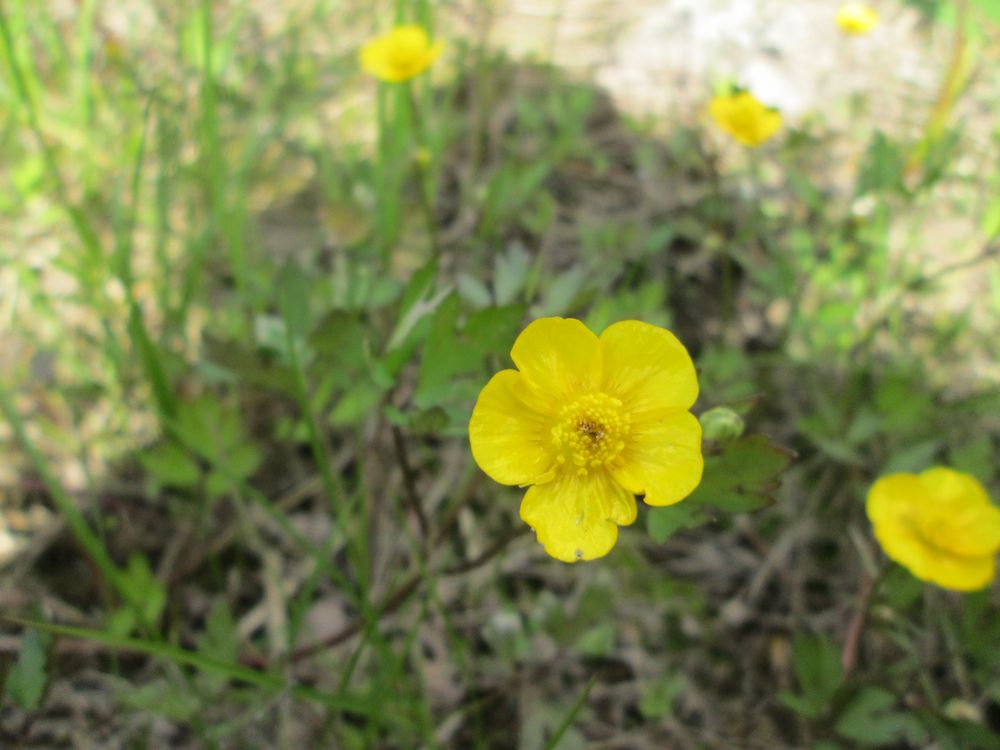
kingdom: Plantae
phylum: Tracheophyta
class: Magnoliopsida
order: Ranunculales
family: Ranunculaceae
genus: Ranunculus
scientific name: Ranunculus polyanthemos
